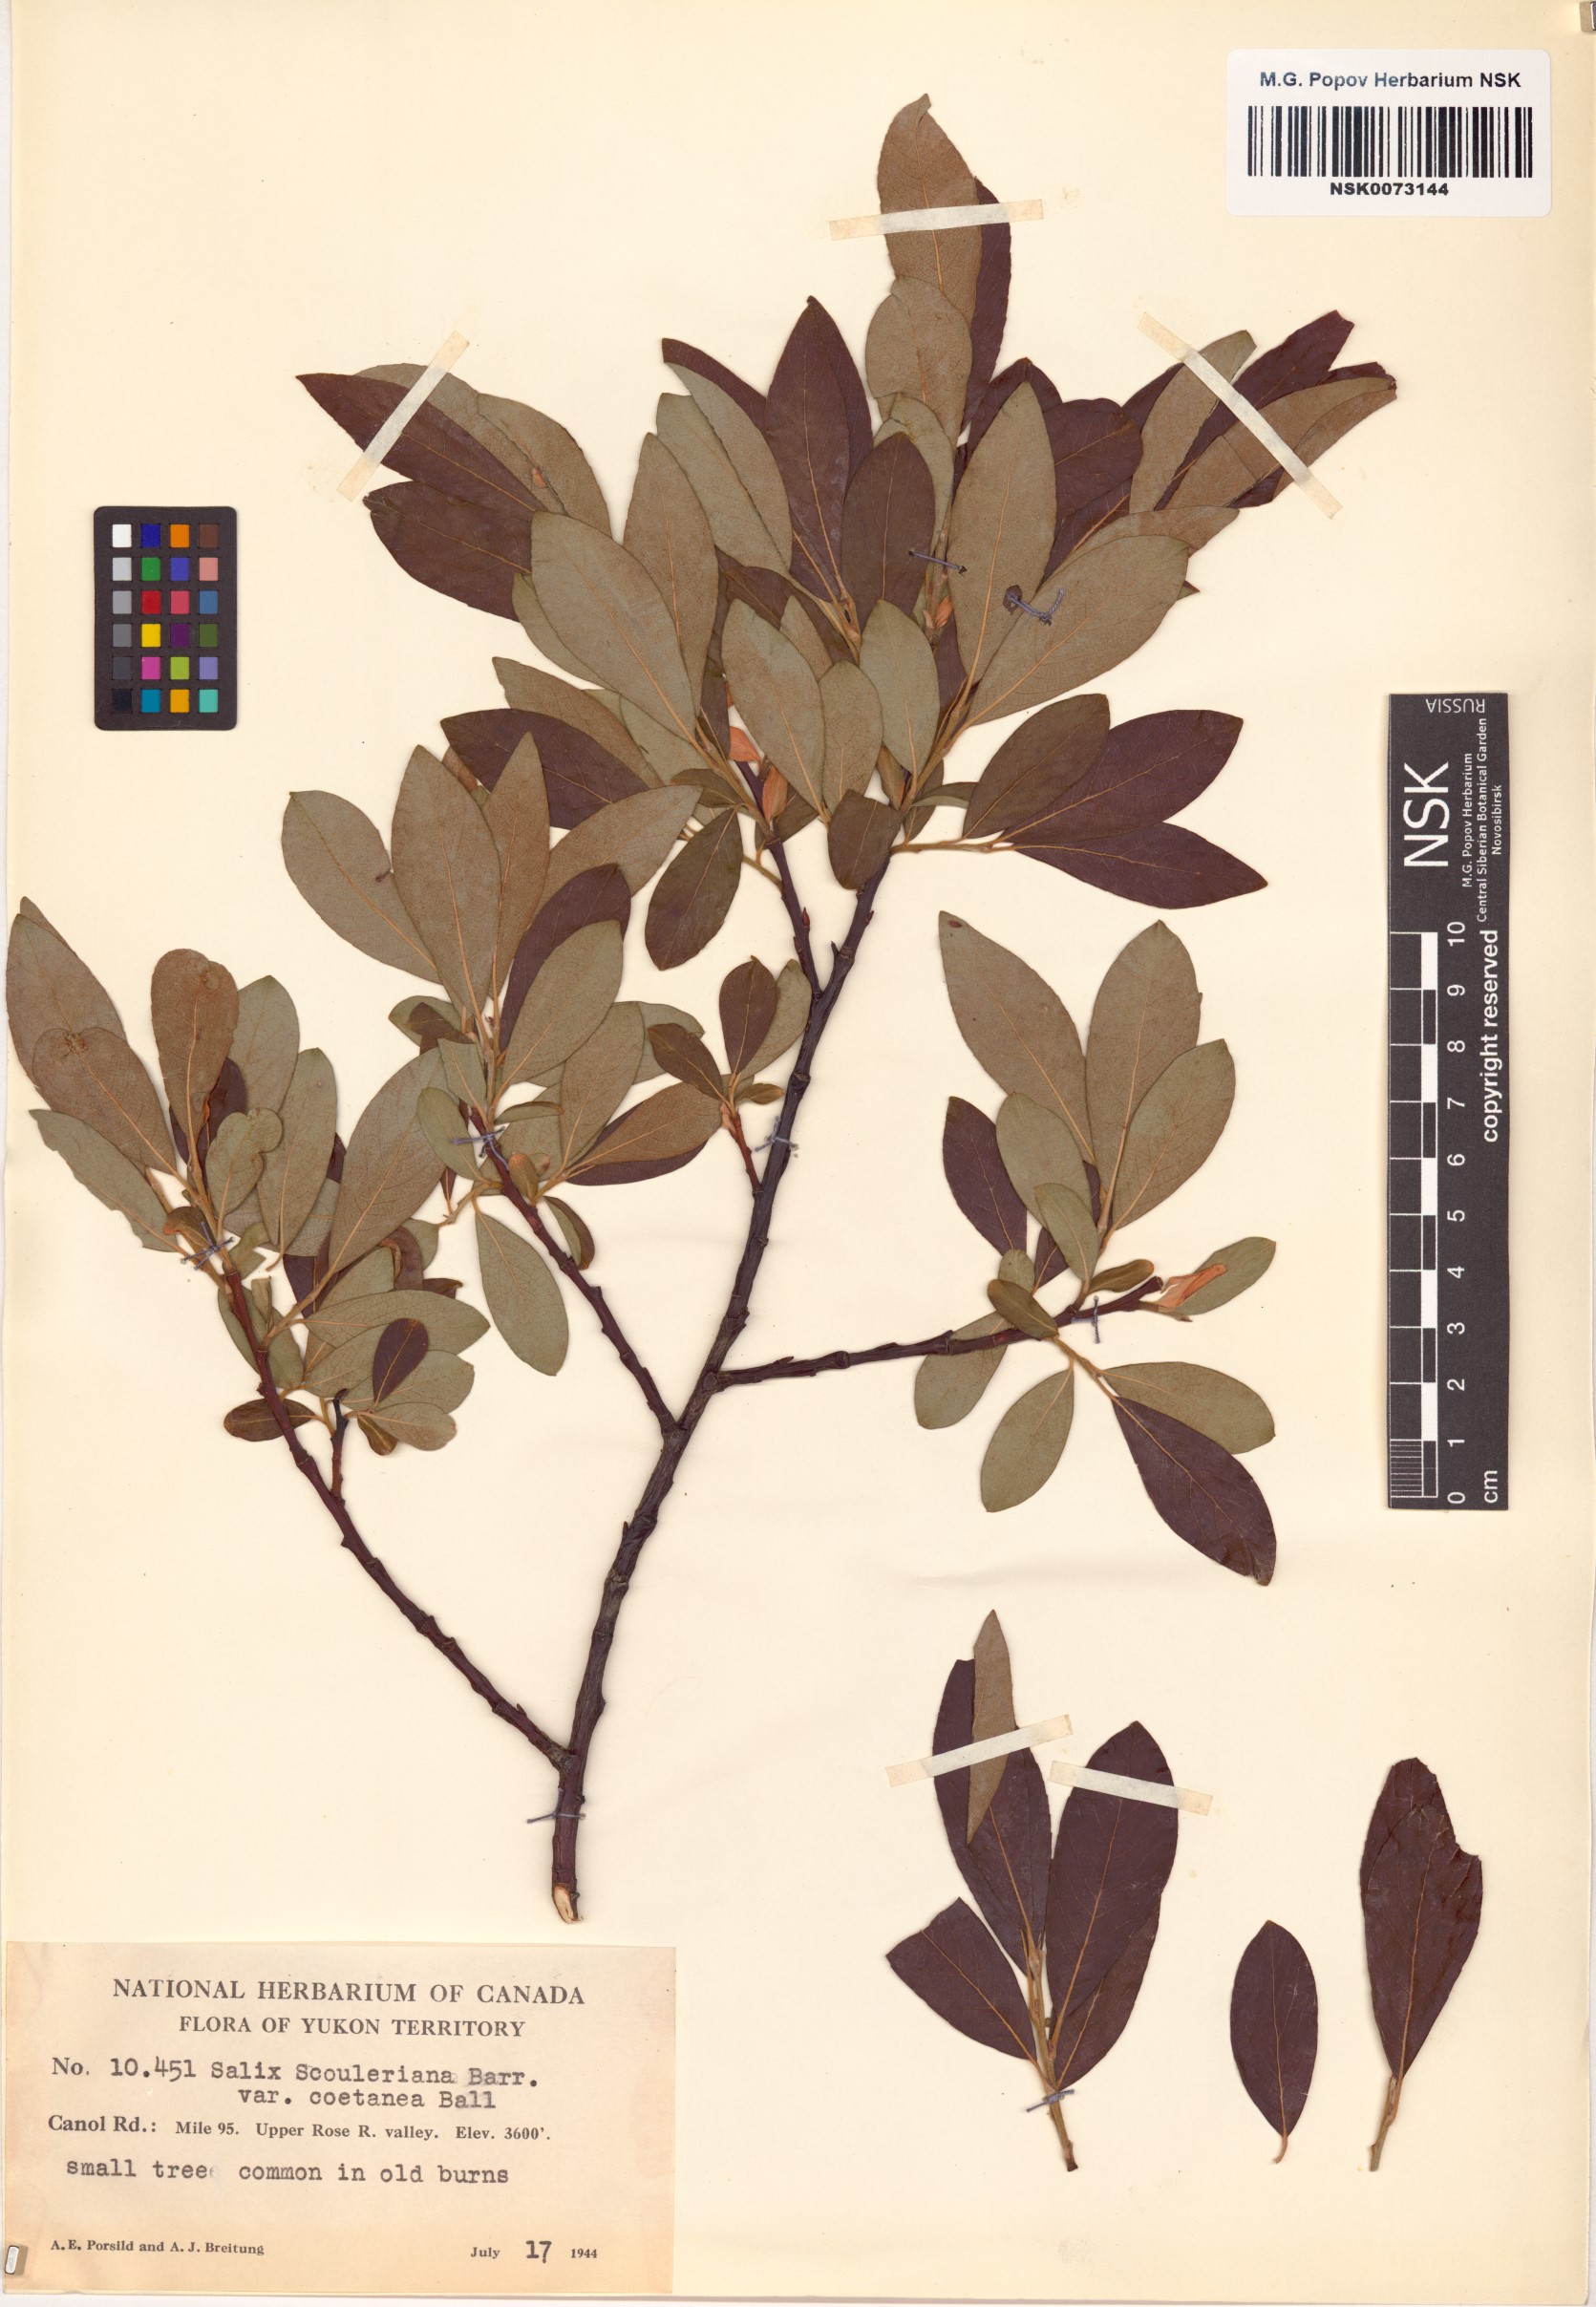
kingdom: Plantae
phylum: Tracheophyta
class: Magnoliopsida
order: Malpighiales
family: Salicaceae
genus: Salix
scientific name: Salix scouleriana
